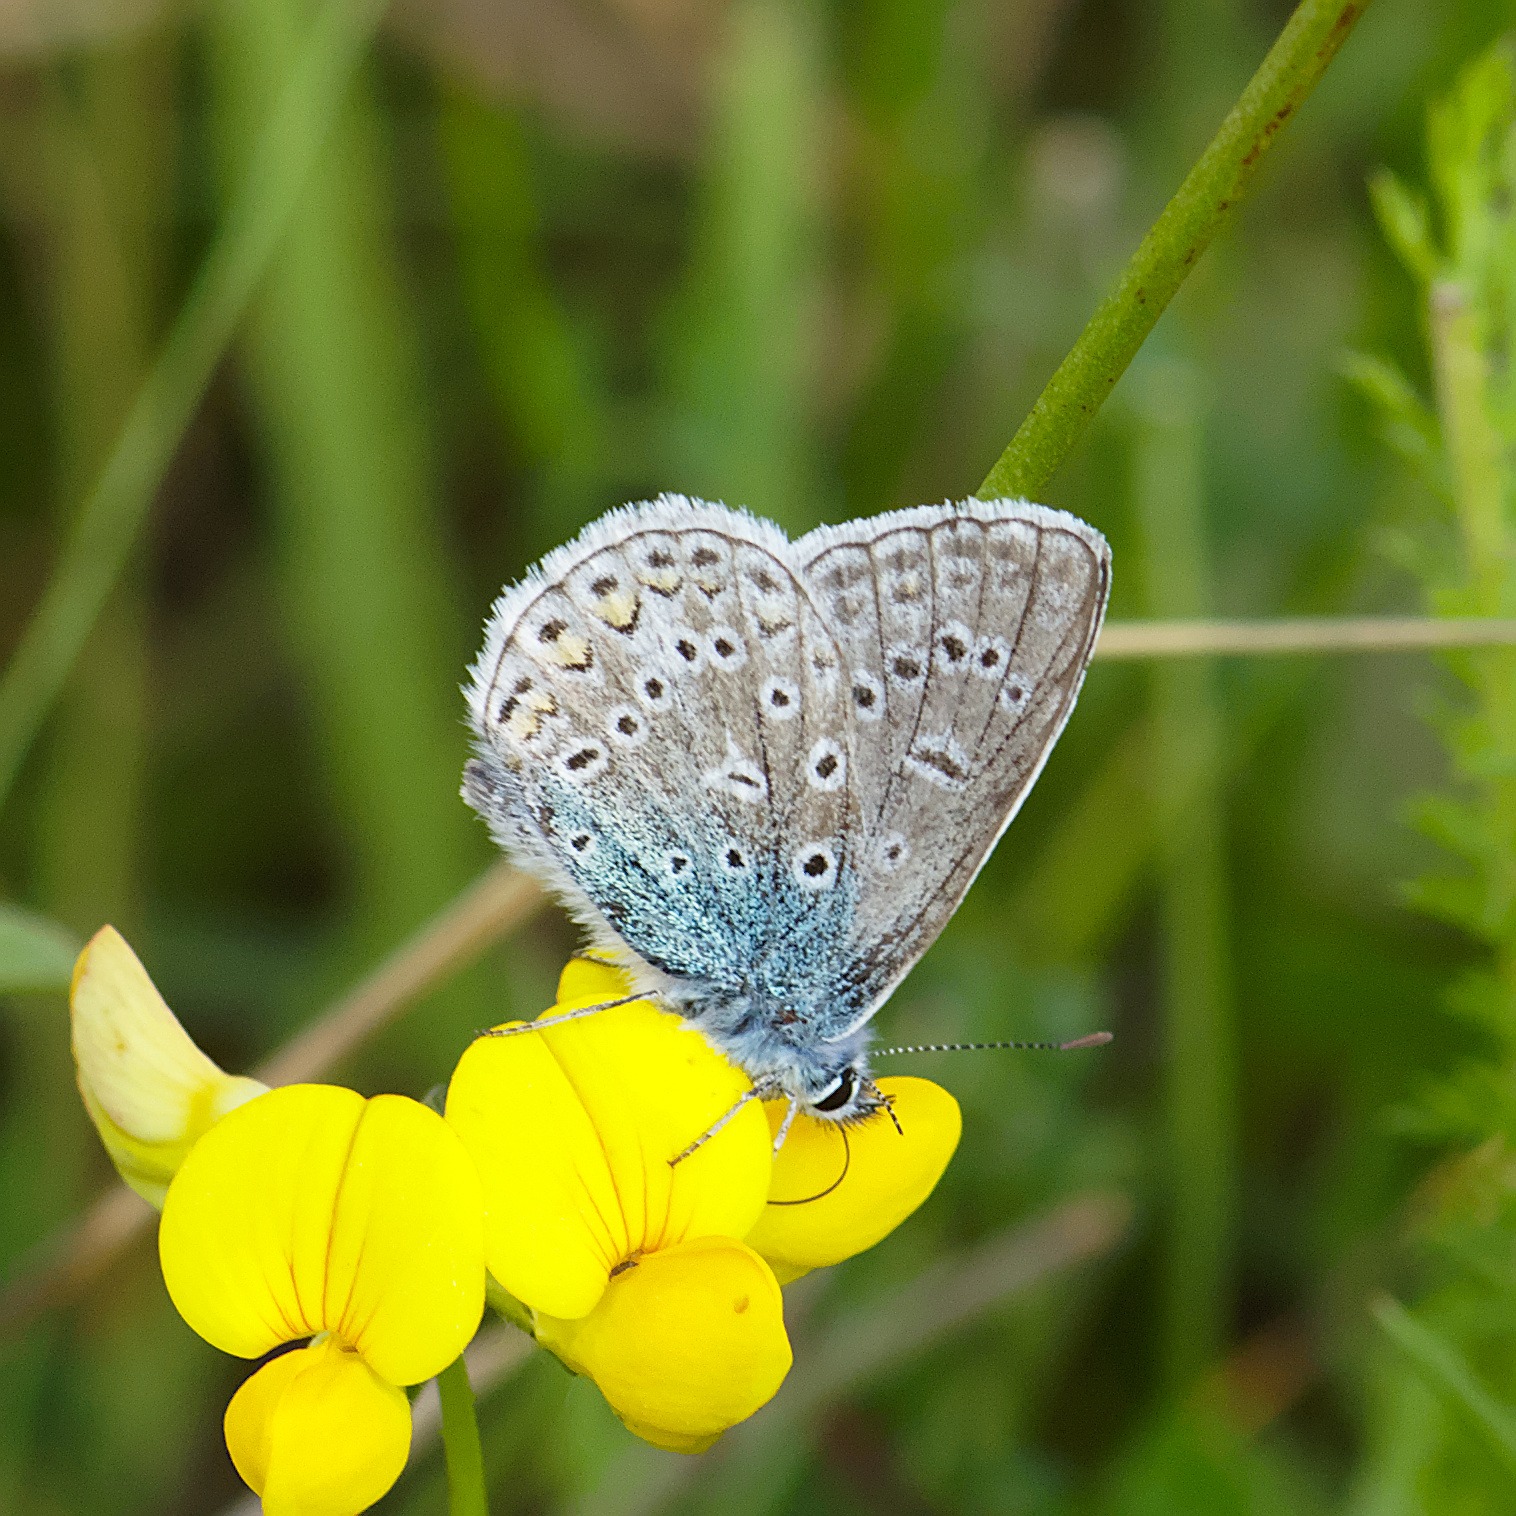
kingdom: Animalia
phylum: Arthropoda
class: Insecta
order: Lepidoptera
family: Lycaenidae
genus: Polyommatus
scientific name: Polyommatus icarus
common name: Almindelig blåfugl
